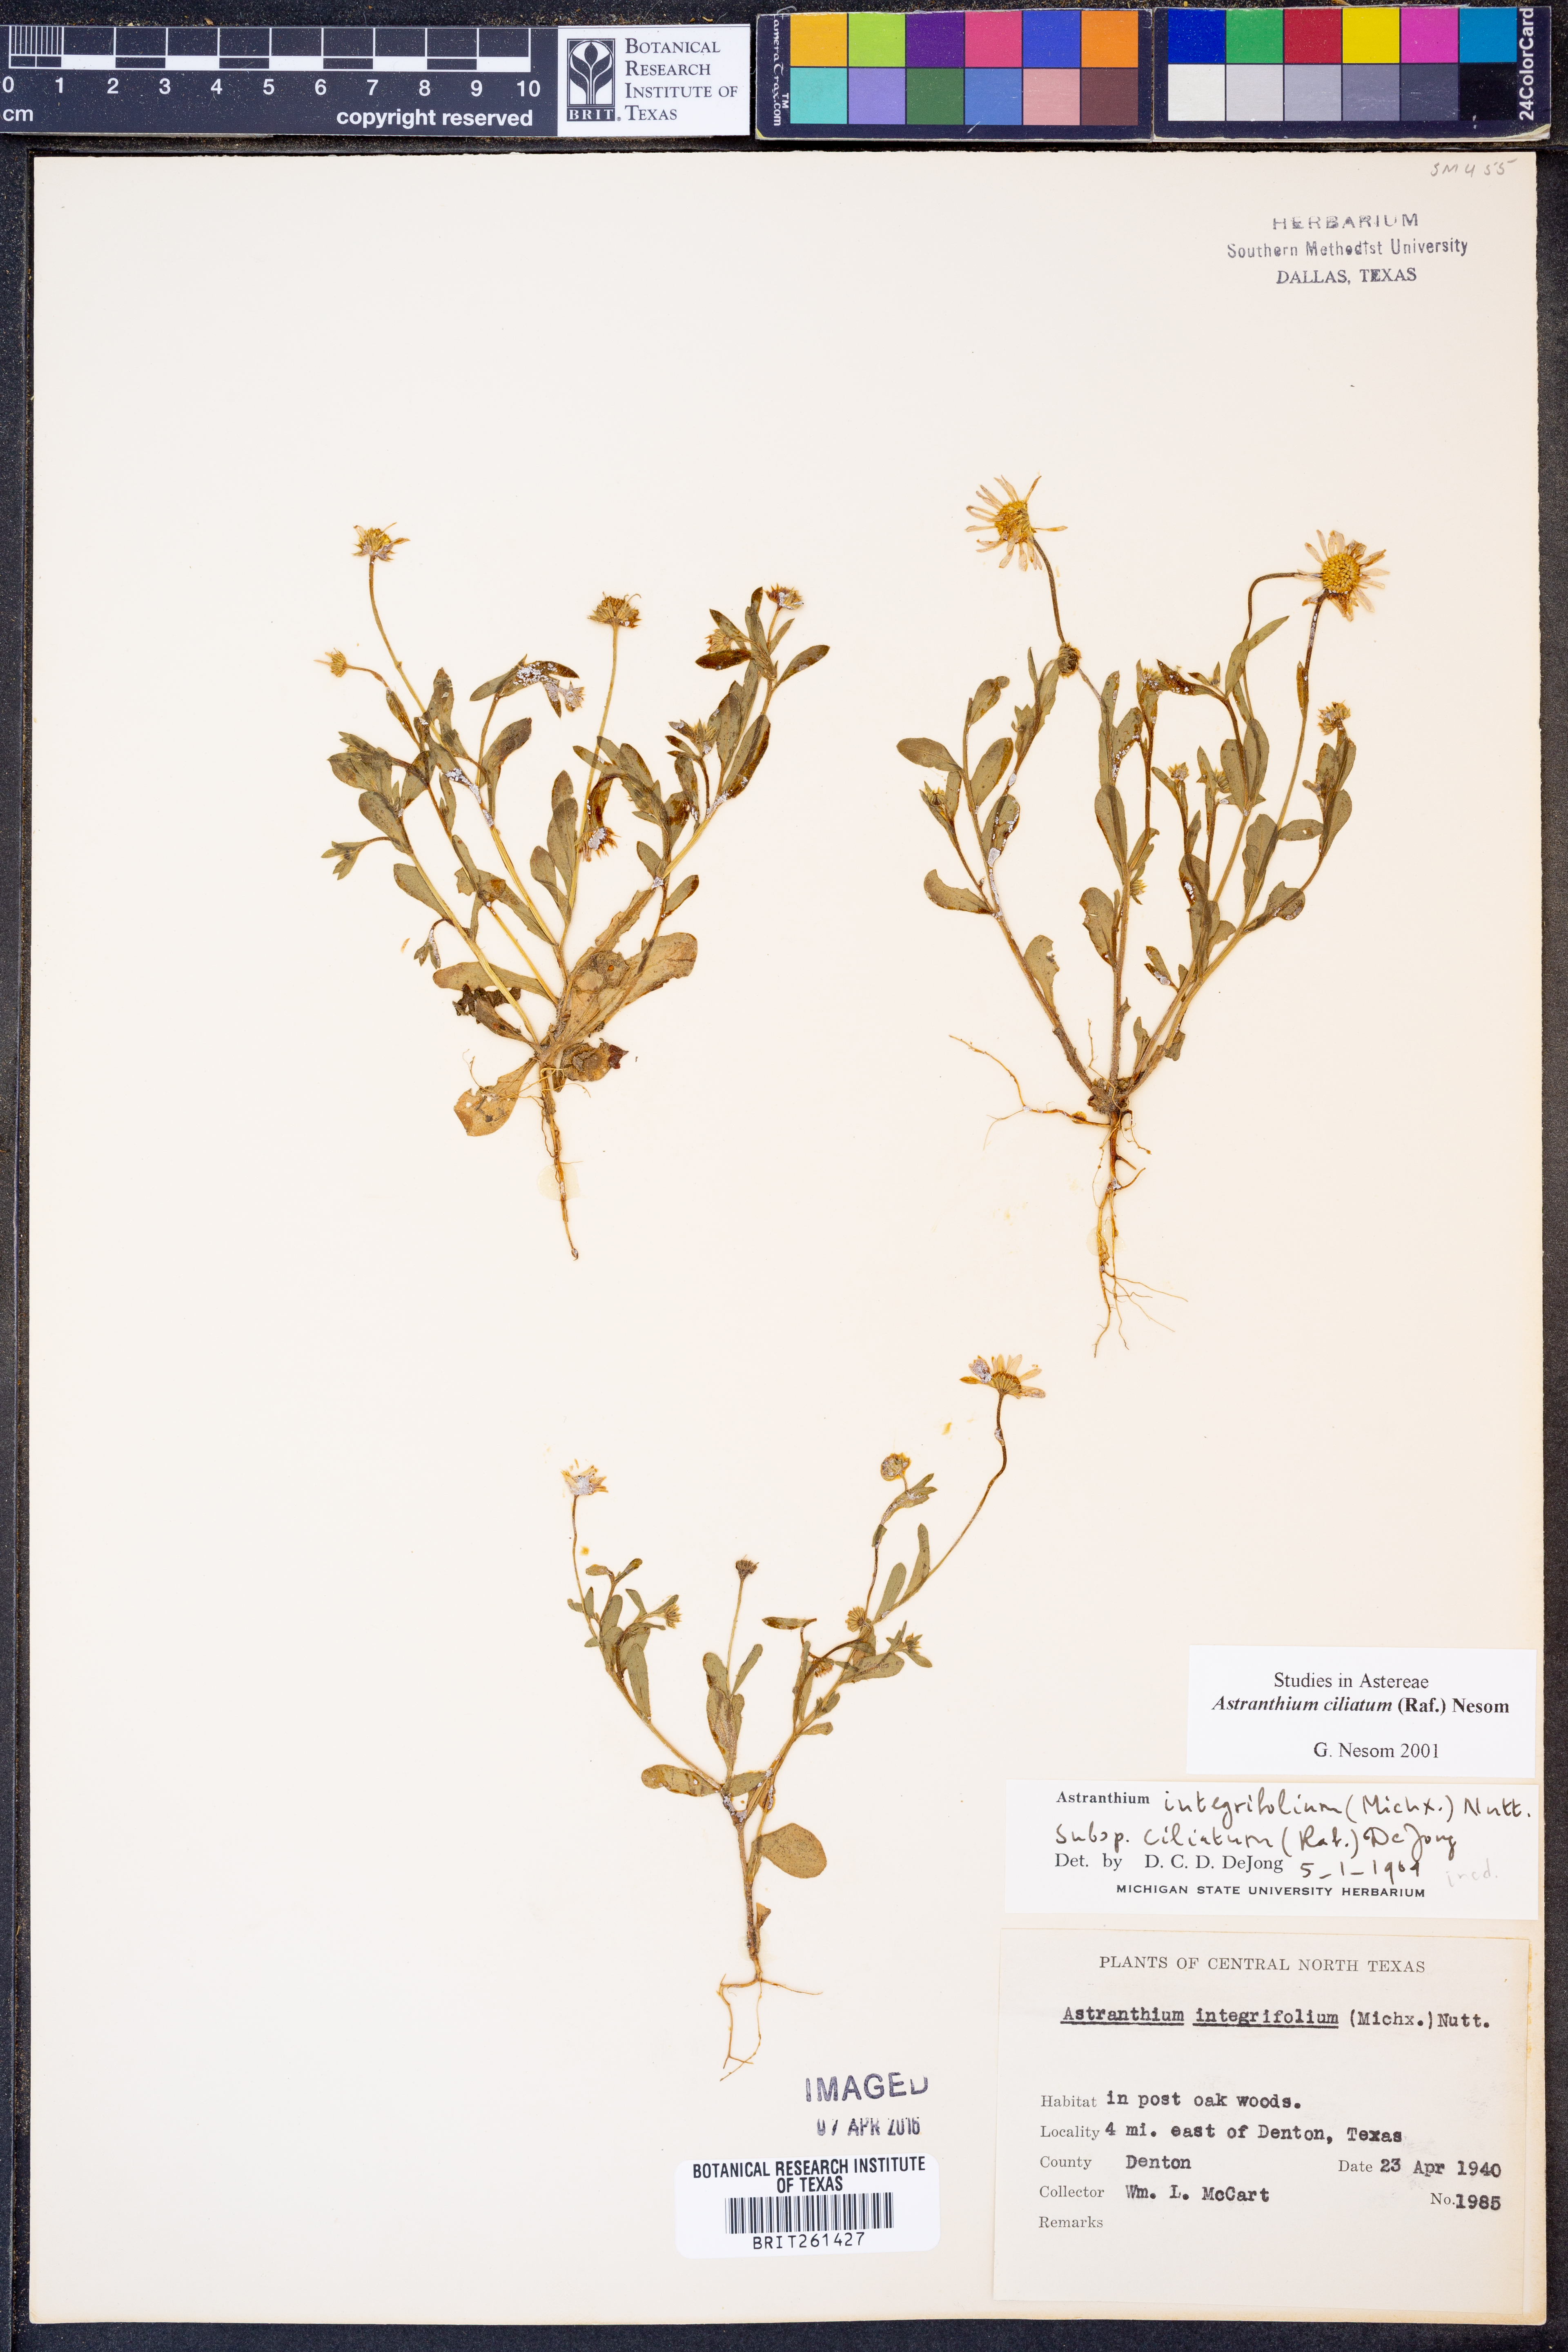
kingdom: Plantae
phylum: Tracheophyta
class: Magnoliopsida
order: Asterales
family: Asteraceae
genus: Astranthium
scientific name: Astranthium ciliatum
